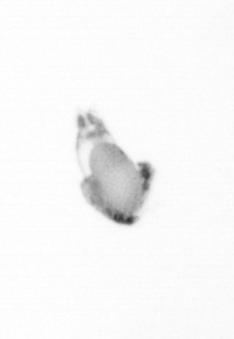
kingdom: Animalia
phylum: Arthropoda
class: Copepoda
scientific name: Copepoda
